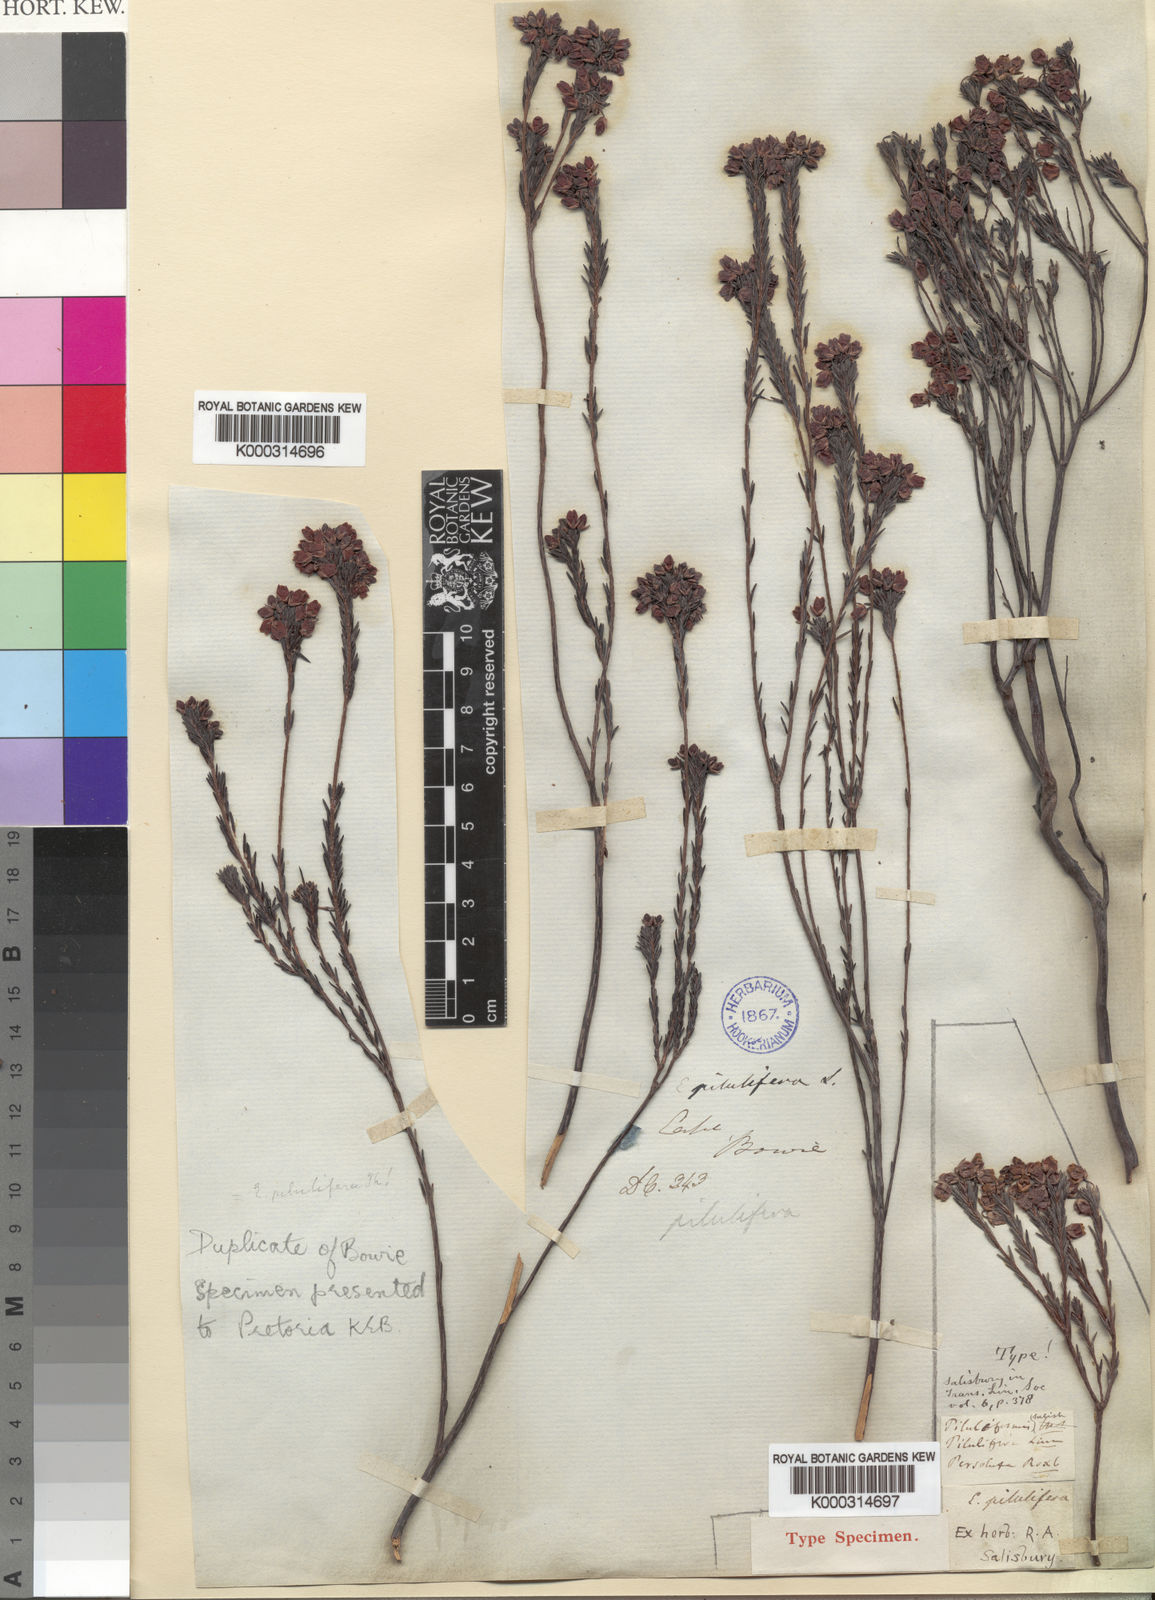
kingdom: Plantae
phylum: Tracheophyta
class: Magnoliopsida
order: Ericales
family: Ericaceae
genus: Erica
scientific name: Erica
